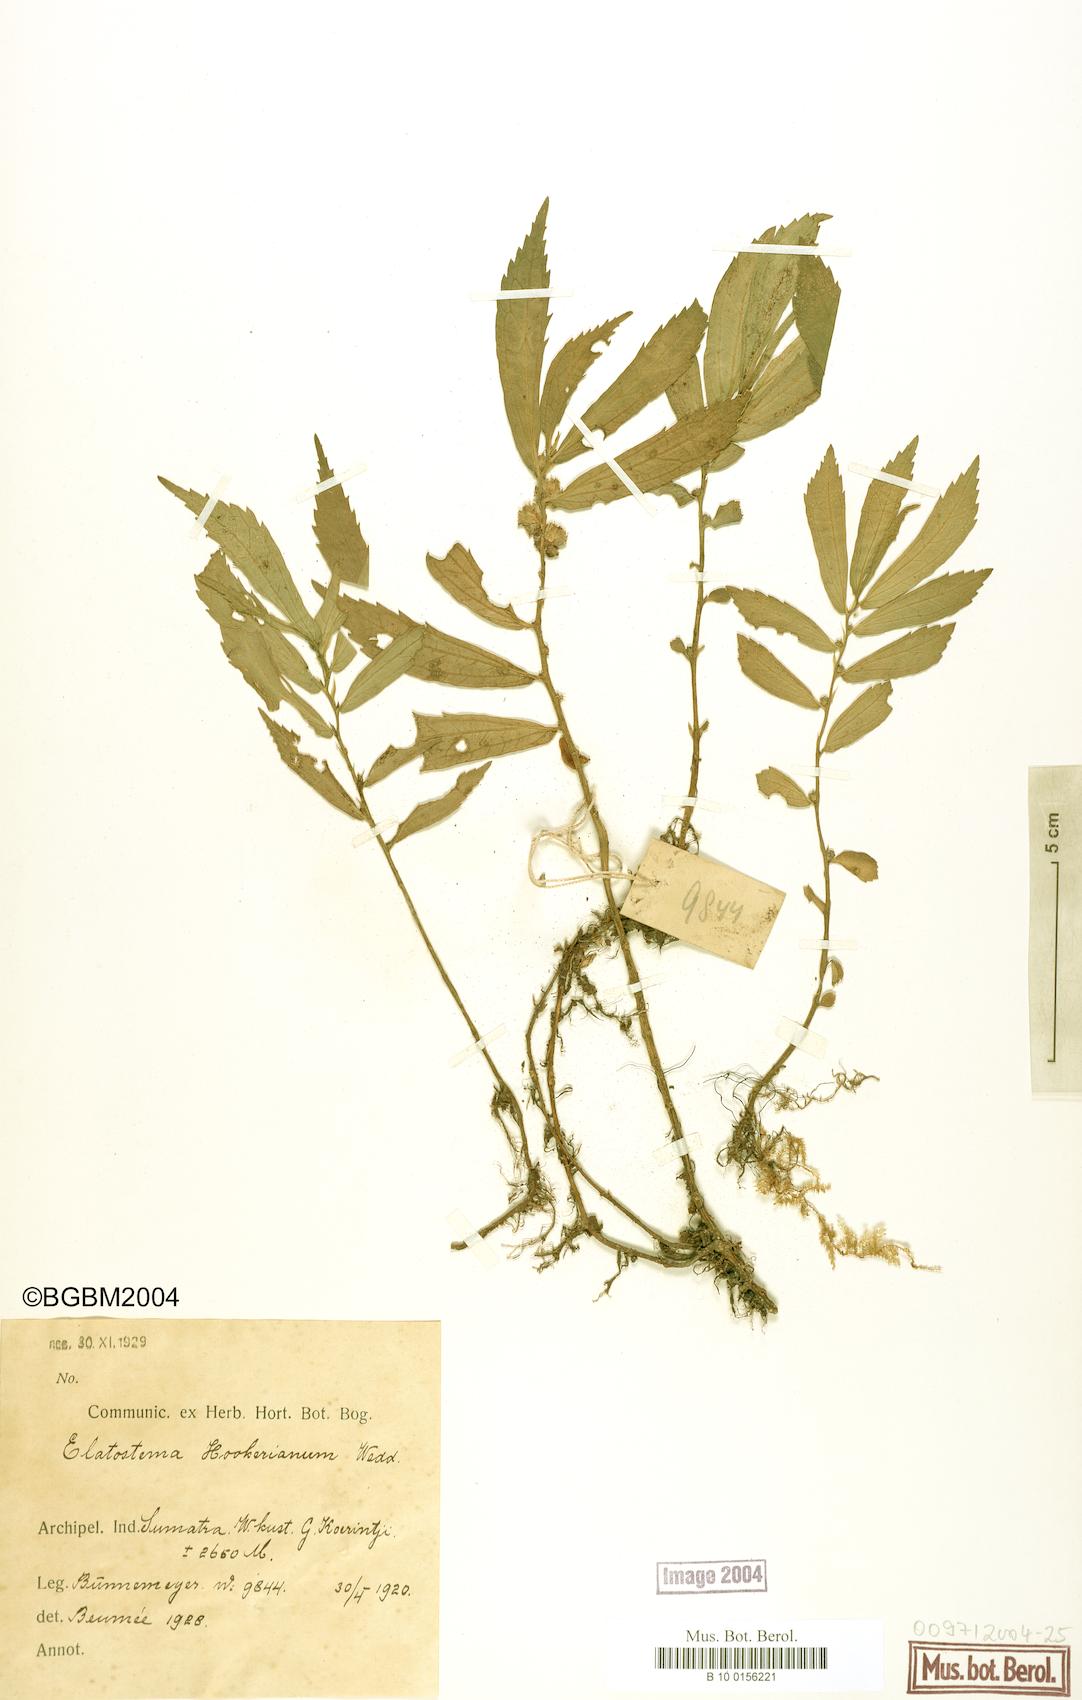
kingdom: Plantae
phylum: Tracheophyta
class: Magnoliopsida
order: Rosales
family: Urticaceae
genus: Elatostema
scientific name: Elatostema hookerianum
